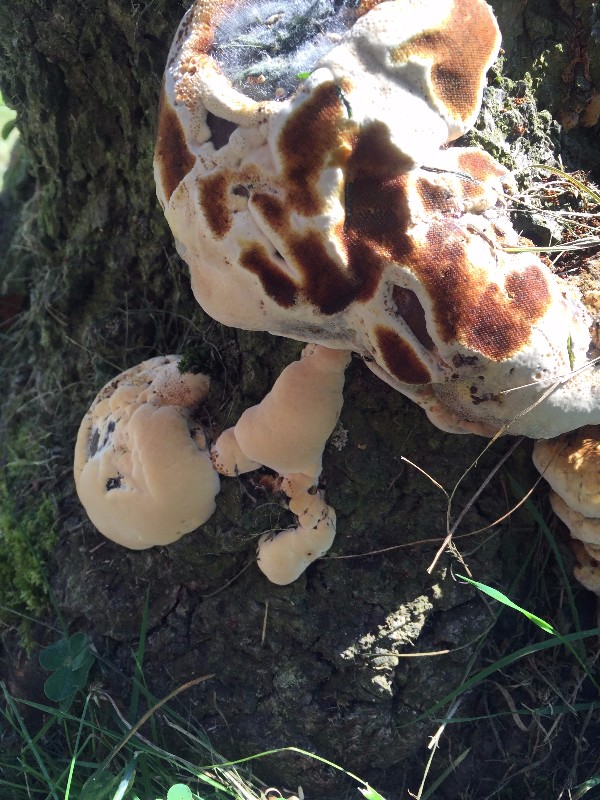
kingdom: Fungi
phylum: Basidiomycota
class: Agaricomycetes
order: Hymenochaetales
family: Hymenochaetaceae
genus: Xanthoporia
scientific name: Xanthoporia radiata
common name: elle-spejlporesvamp
